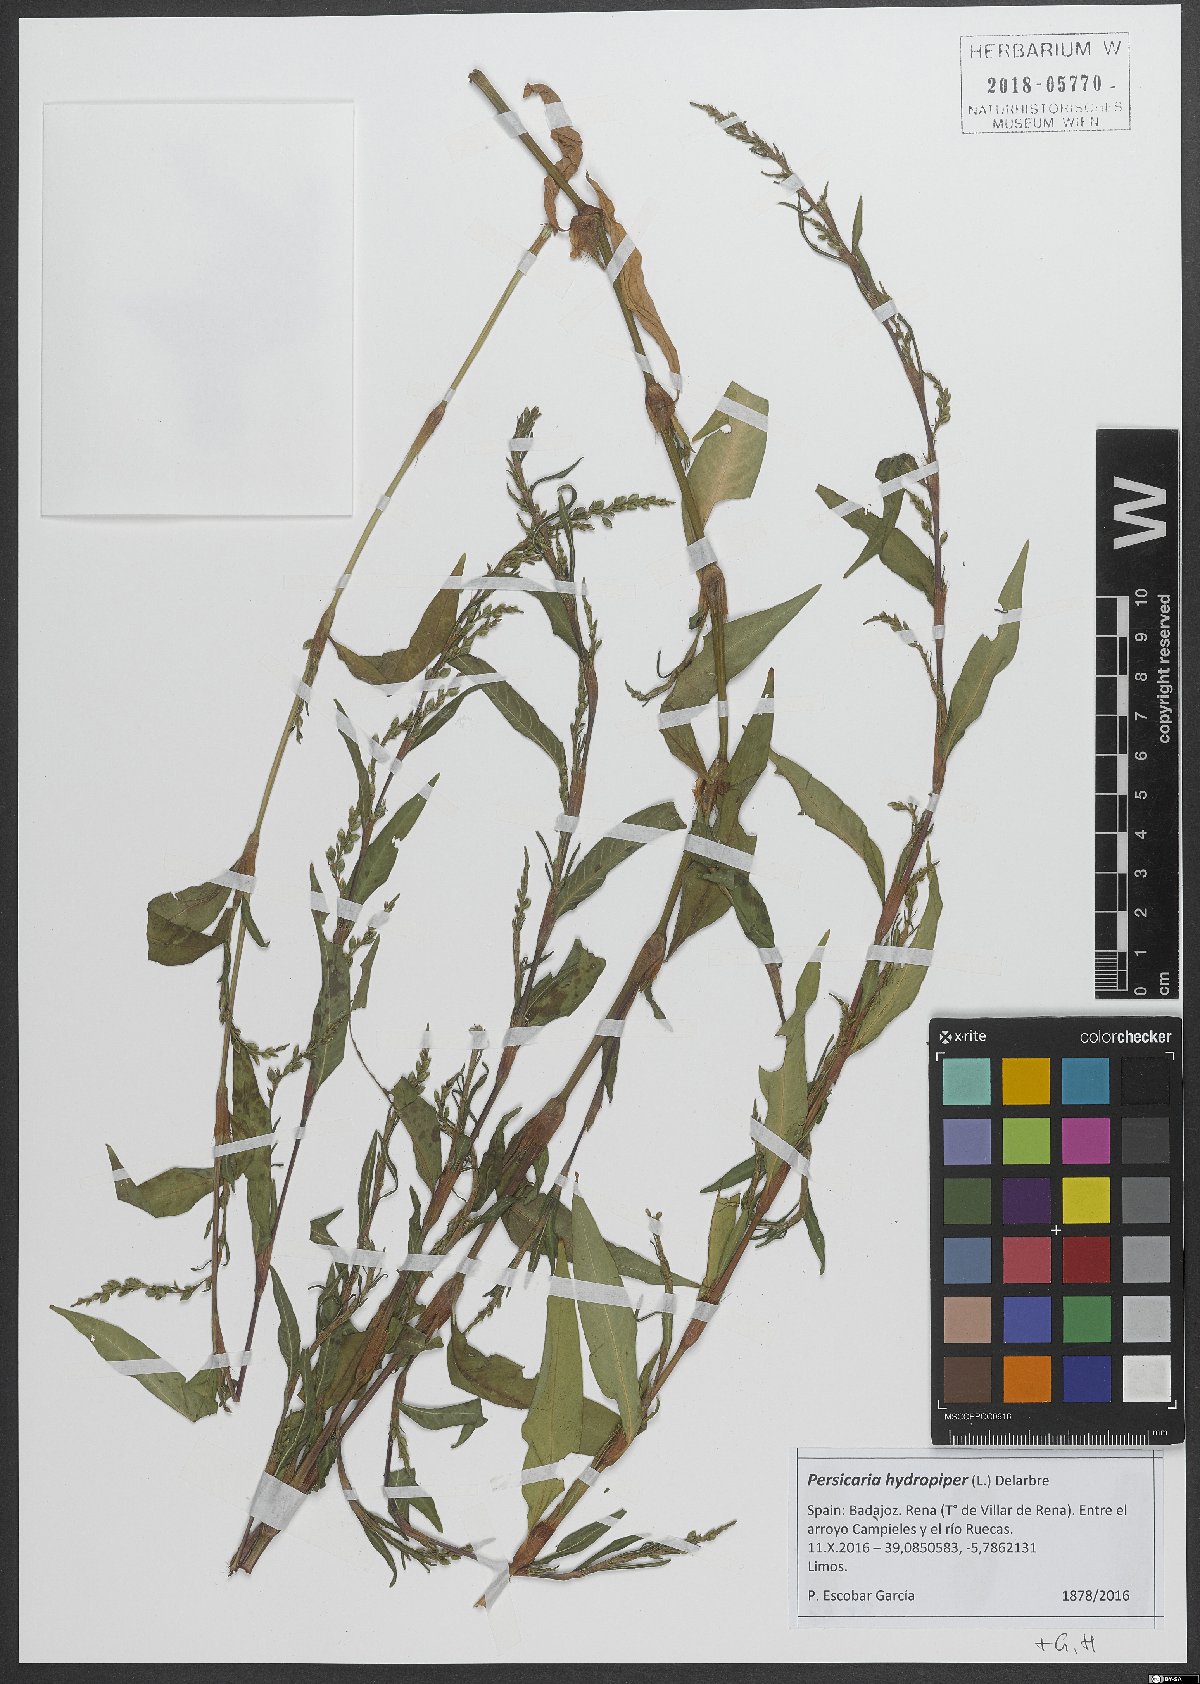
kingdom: Plantae
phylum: Tracheophyta
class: Magnoliopsida
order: Caryophyllales
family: Polygonaceae
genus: Persicaria
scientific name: Persicaria hydropiper
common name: Water-pepper
